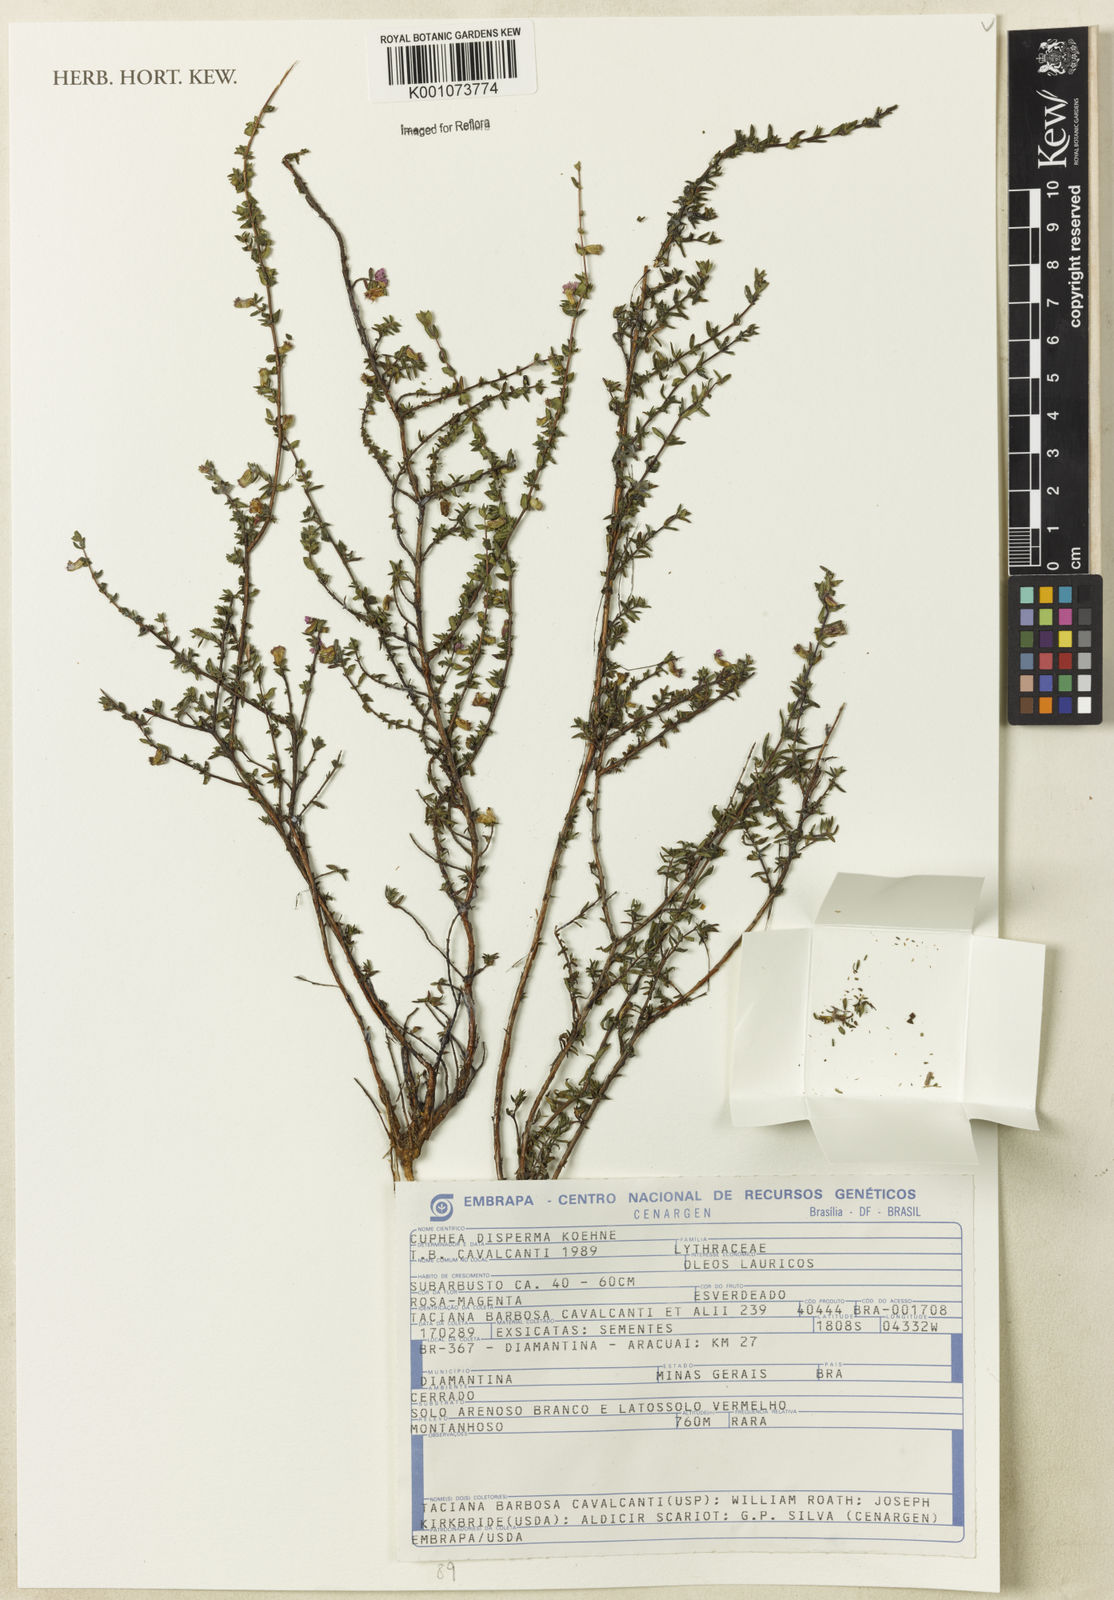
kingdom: Plantae
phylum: Tracheophyta
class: Magnoliopsida
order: Myrtales
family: Lythraceae
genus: Cuphea
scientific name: Cuphea disperma
